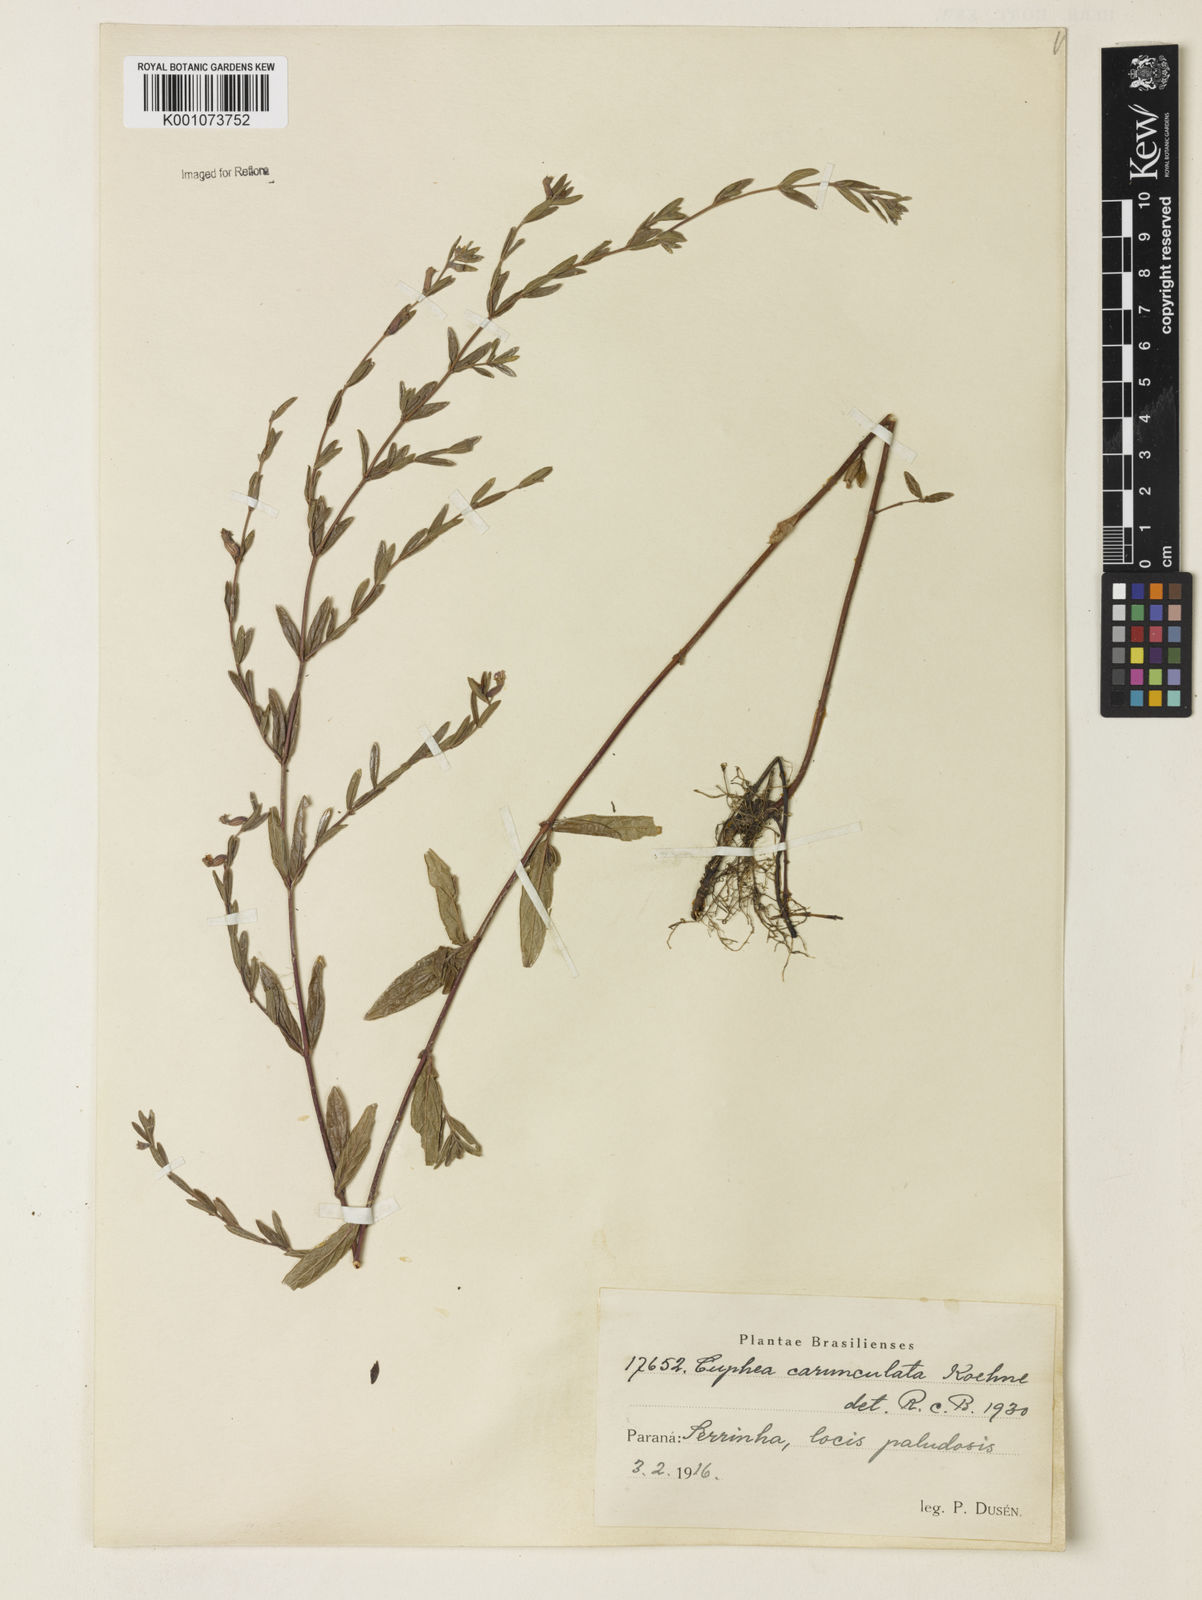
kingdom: Plantae
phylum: Tracheophyta
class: Magnoliopsida
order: Myrtales
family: Lythraceae
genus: Cuphea
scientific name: Cuphea urbaniana
